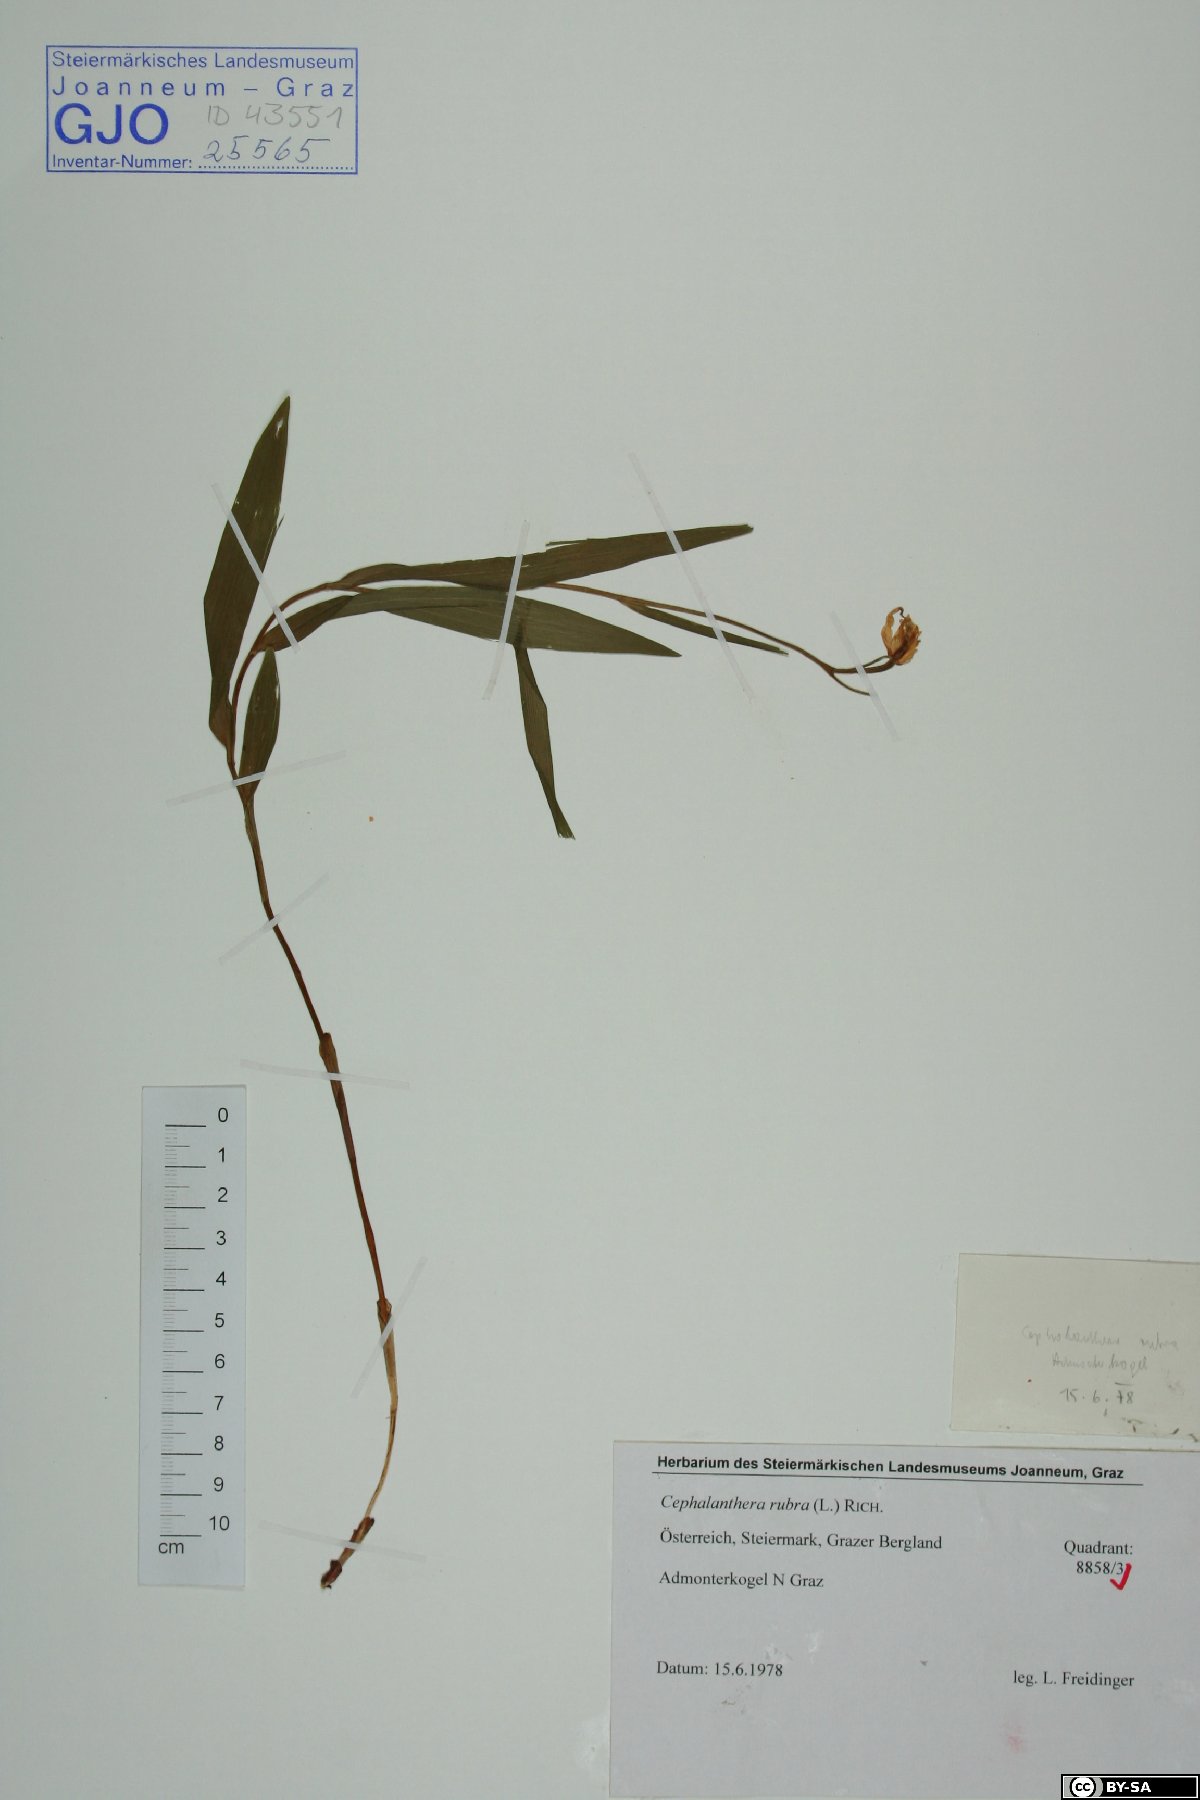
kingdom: Plantae
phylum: Tracheophyta
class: Liliopsida
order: Asparagales
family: Orchidaceae
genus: Cephalanthera
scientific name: Cephalanthera rubra
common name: Red helleborine
